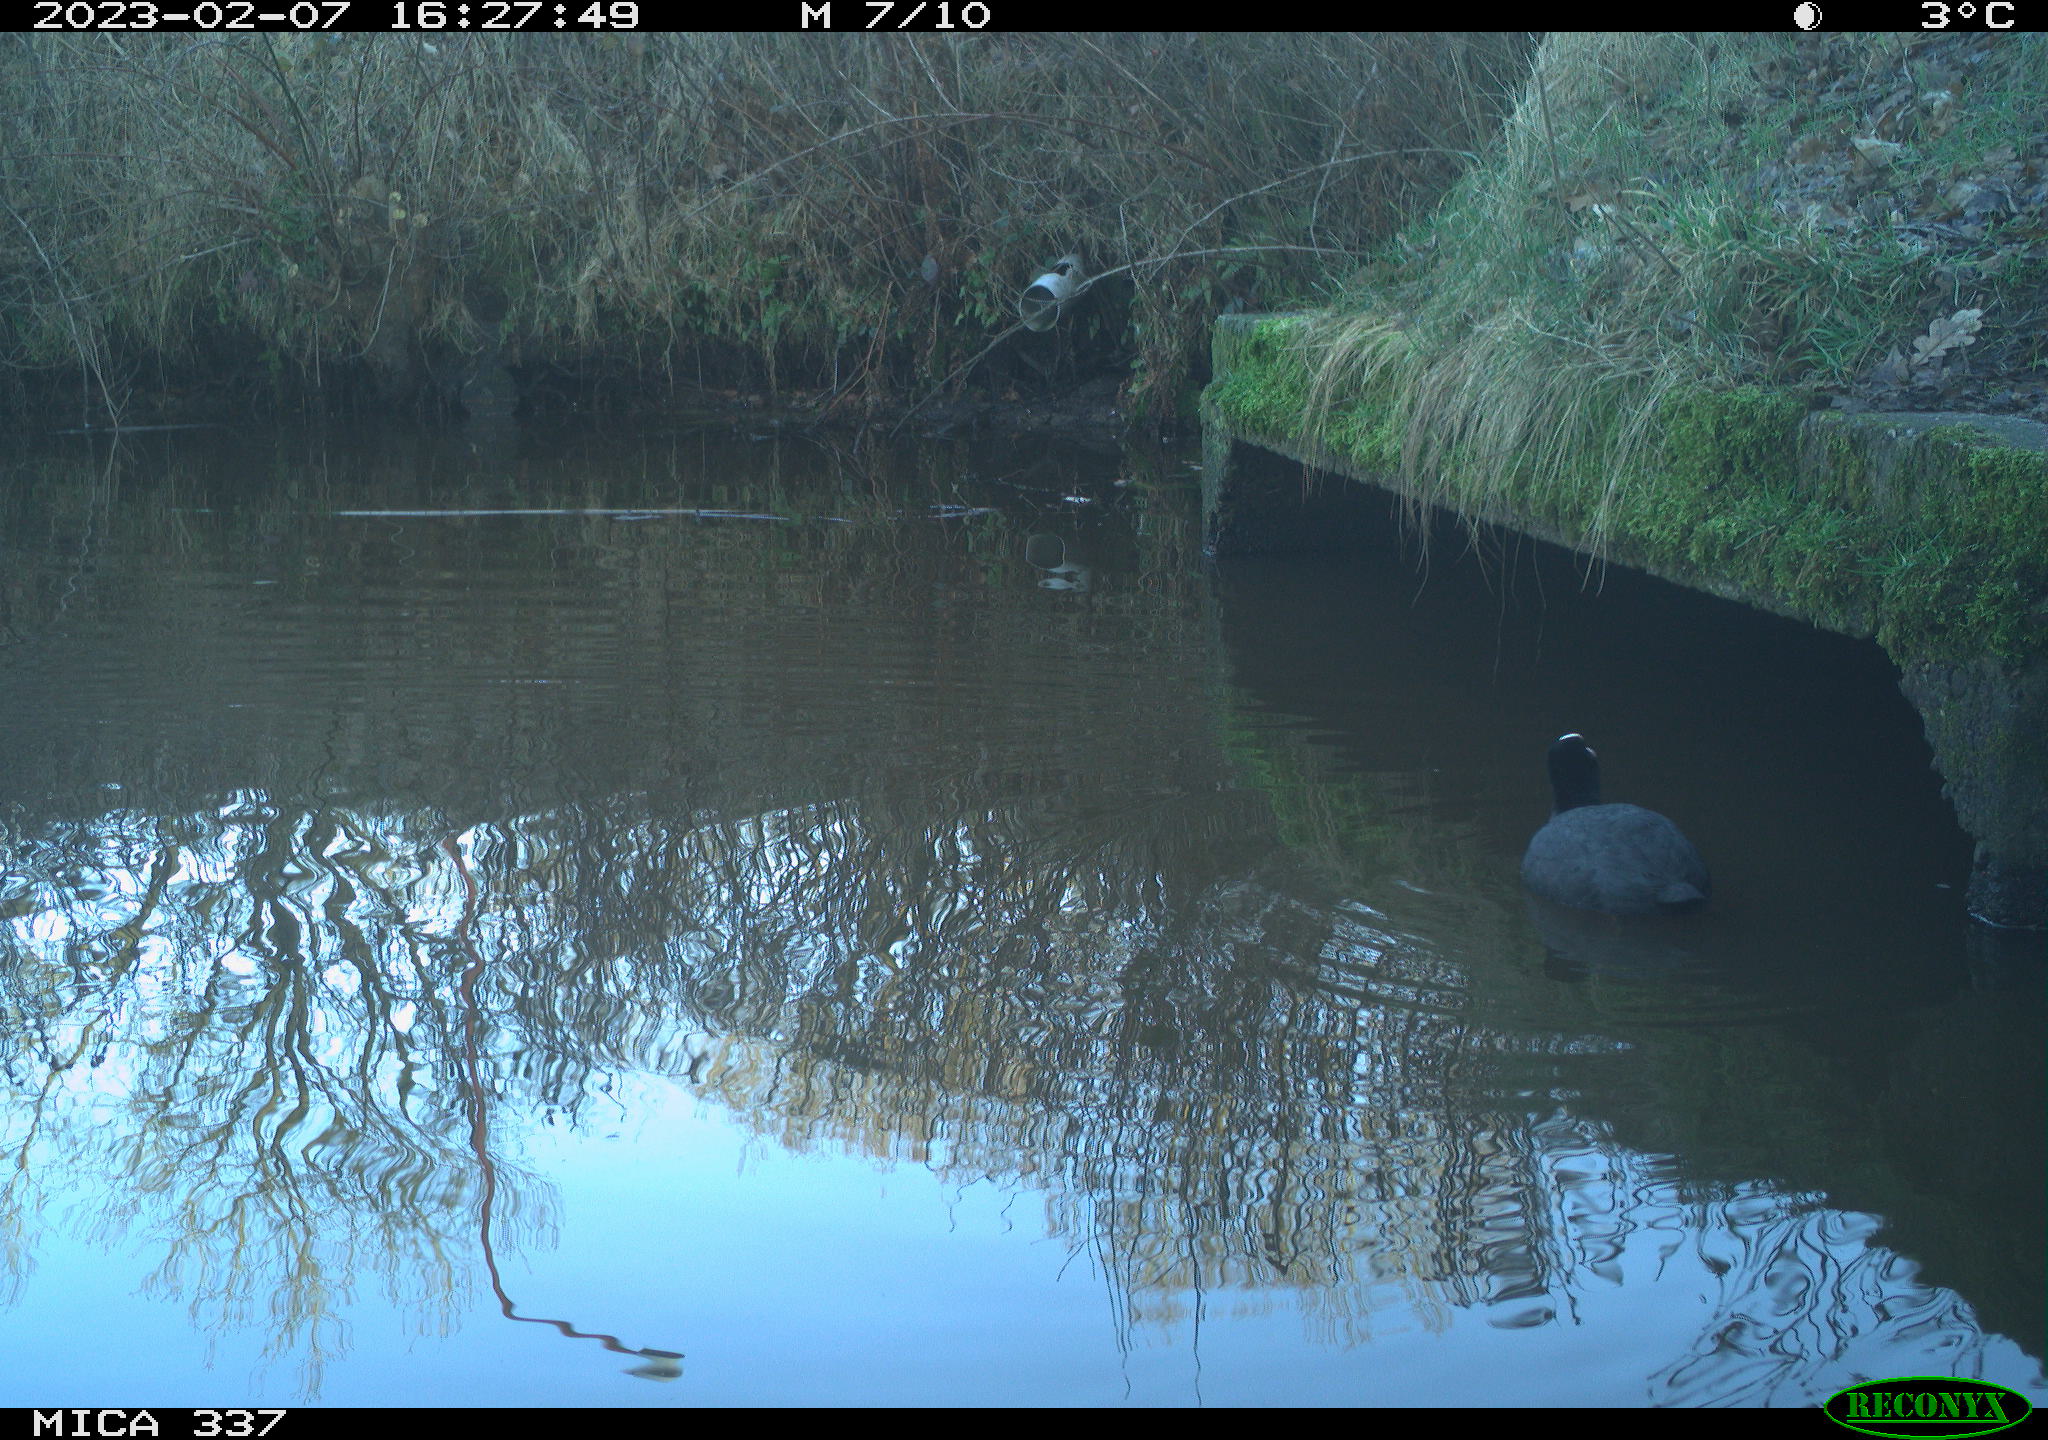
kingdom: Animalia
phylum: Chordata
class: Aves
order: Gruiformes
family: Rallidae
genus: Fulica
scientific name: Fulica atra
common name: Eurasian coot
